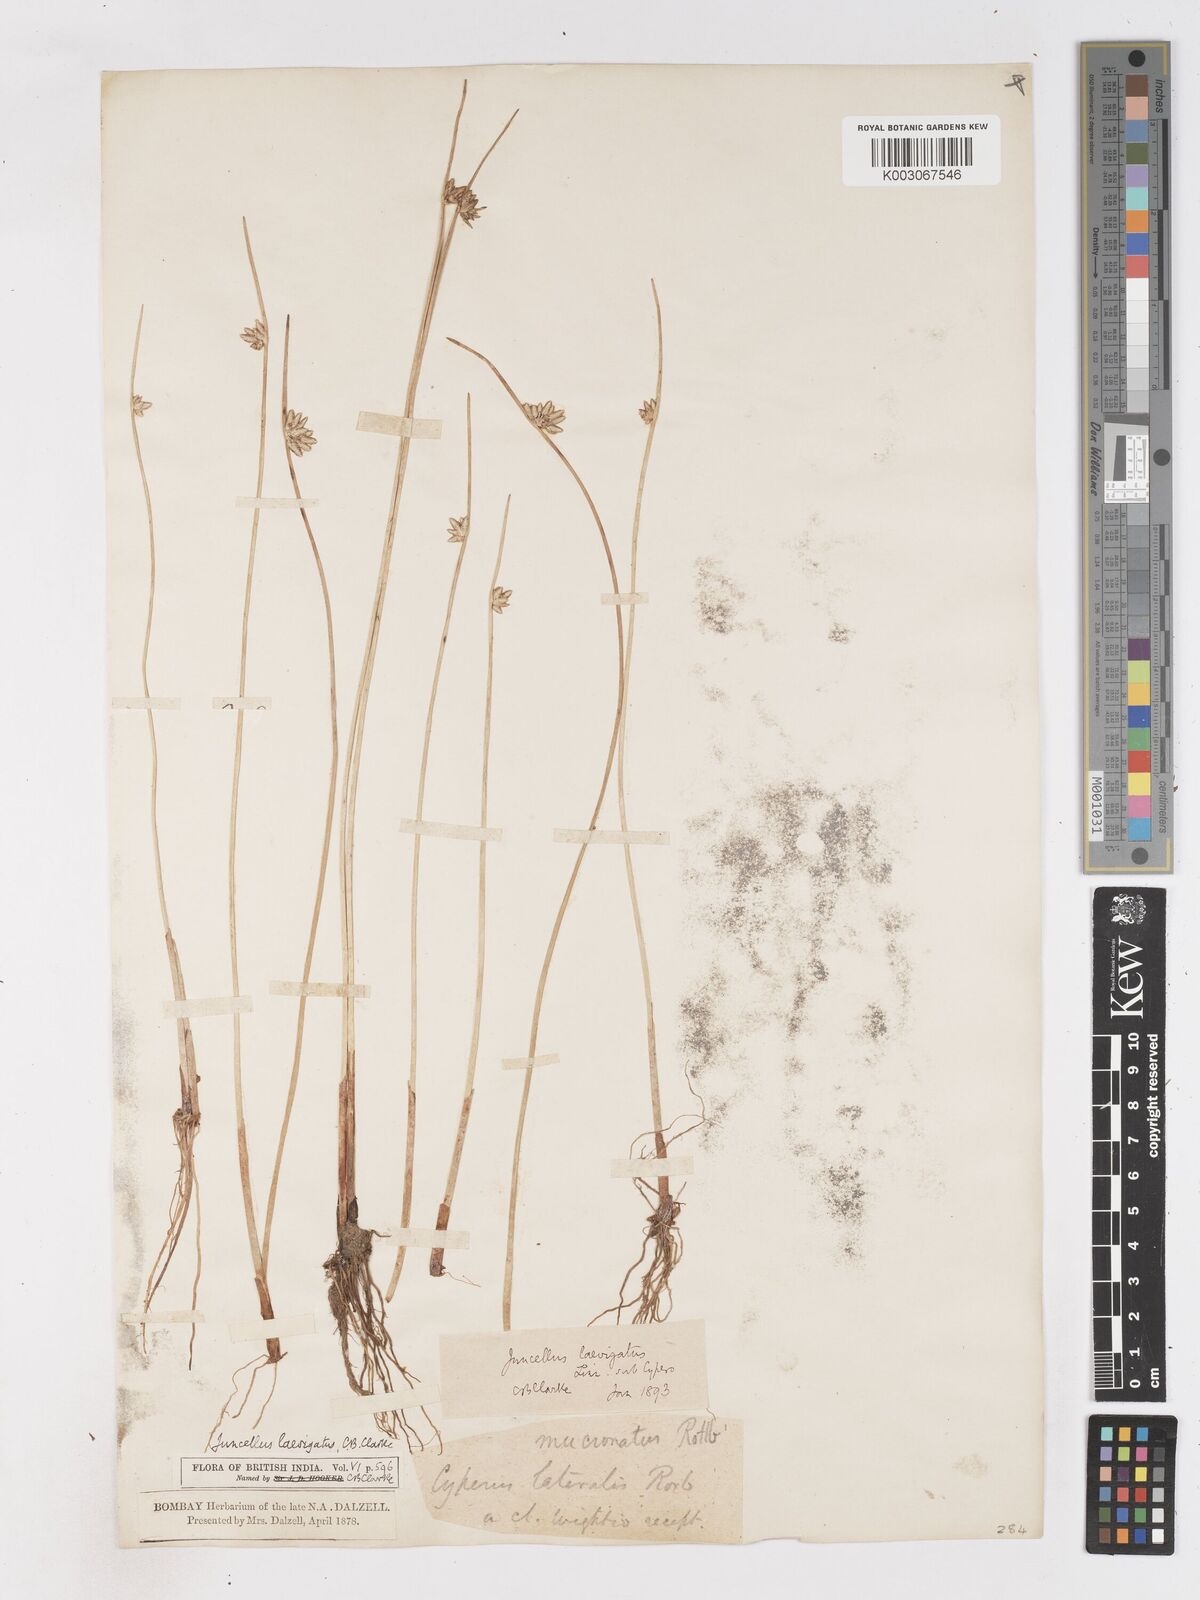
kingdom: Plantae
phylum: Tracheophyta
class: Liliopsida
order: Poales
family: Cyperaceae
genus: Cyperus
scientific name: Cyperus laevigatus
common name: Smooth flat sedge
